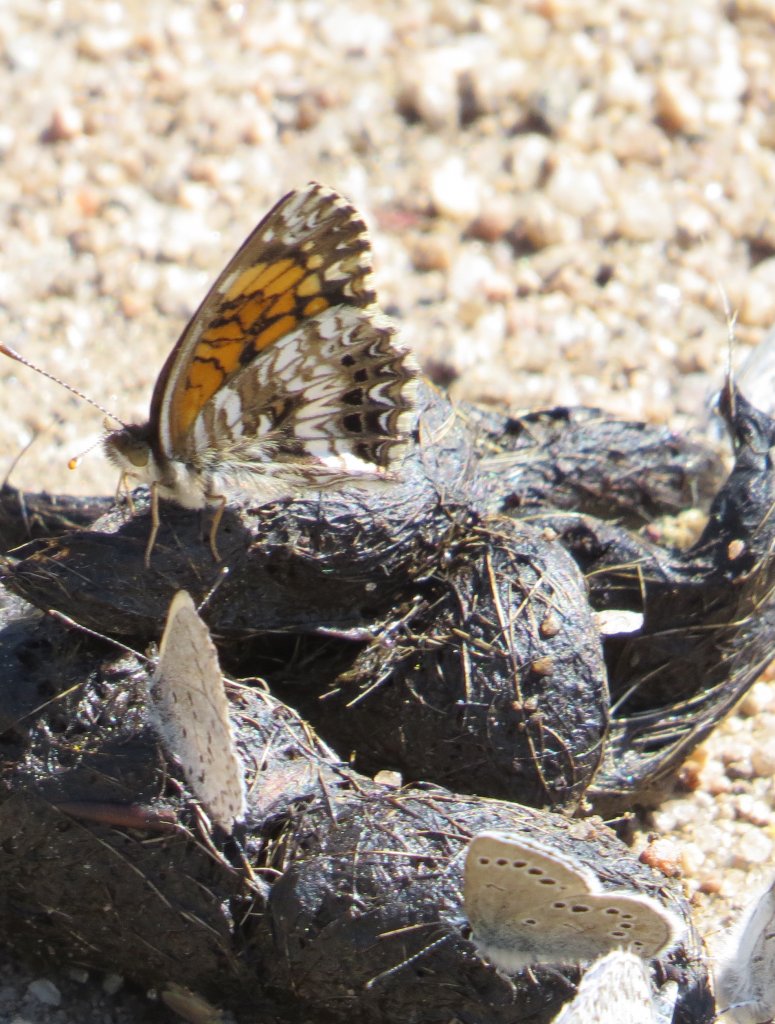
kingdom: Animalia
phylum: Arthropoda
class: Insecta
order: Lepidoptera
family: Nymphalidae
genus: Chlosyne
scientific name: Chlosyne gorgone
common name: Gorgone Checkerspot
